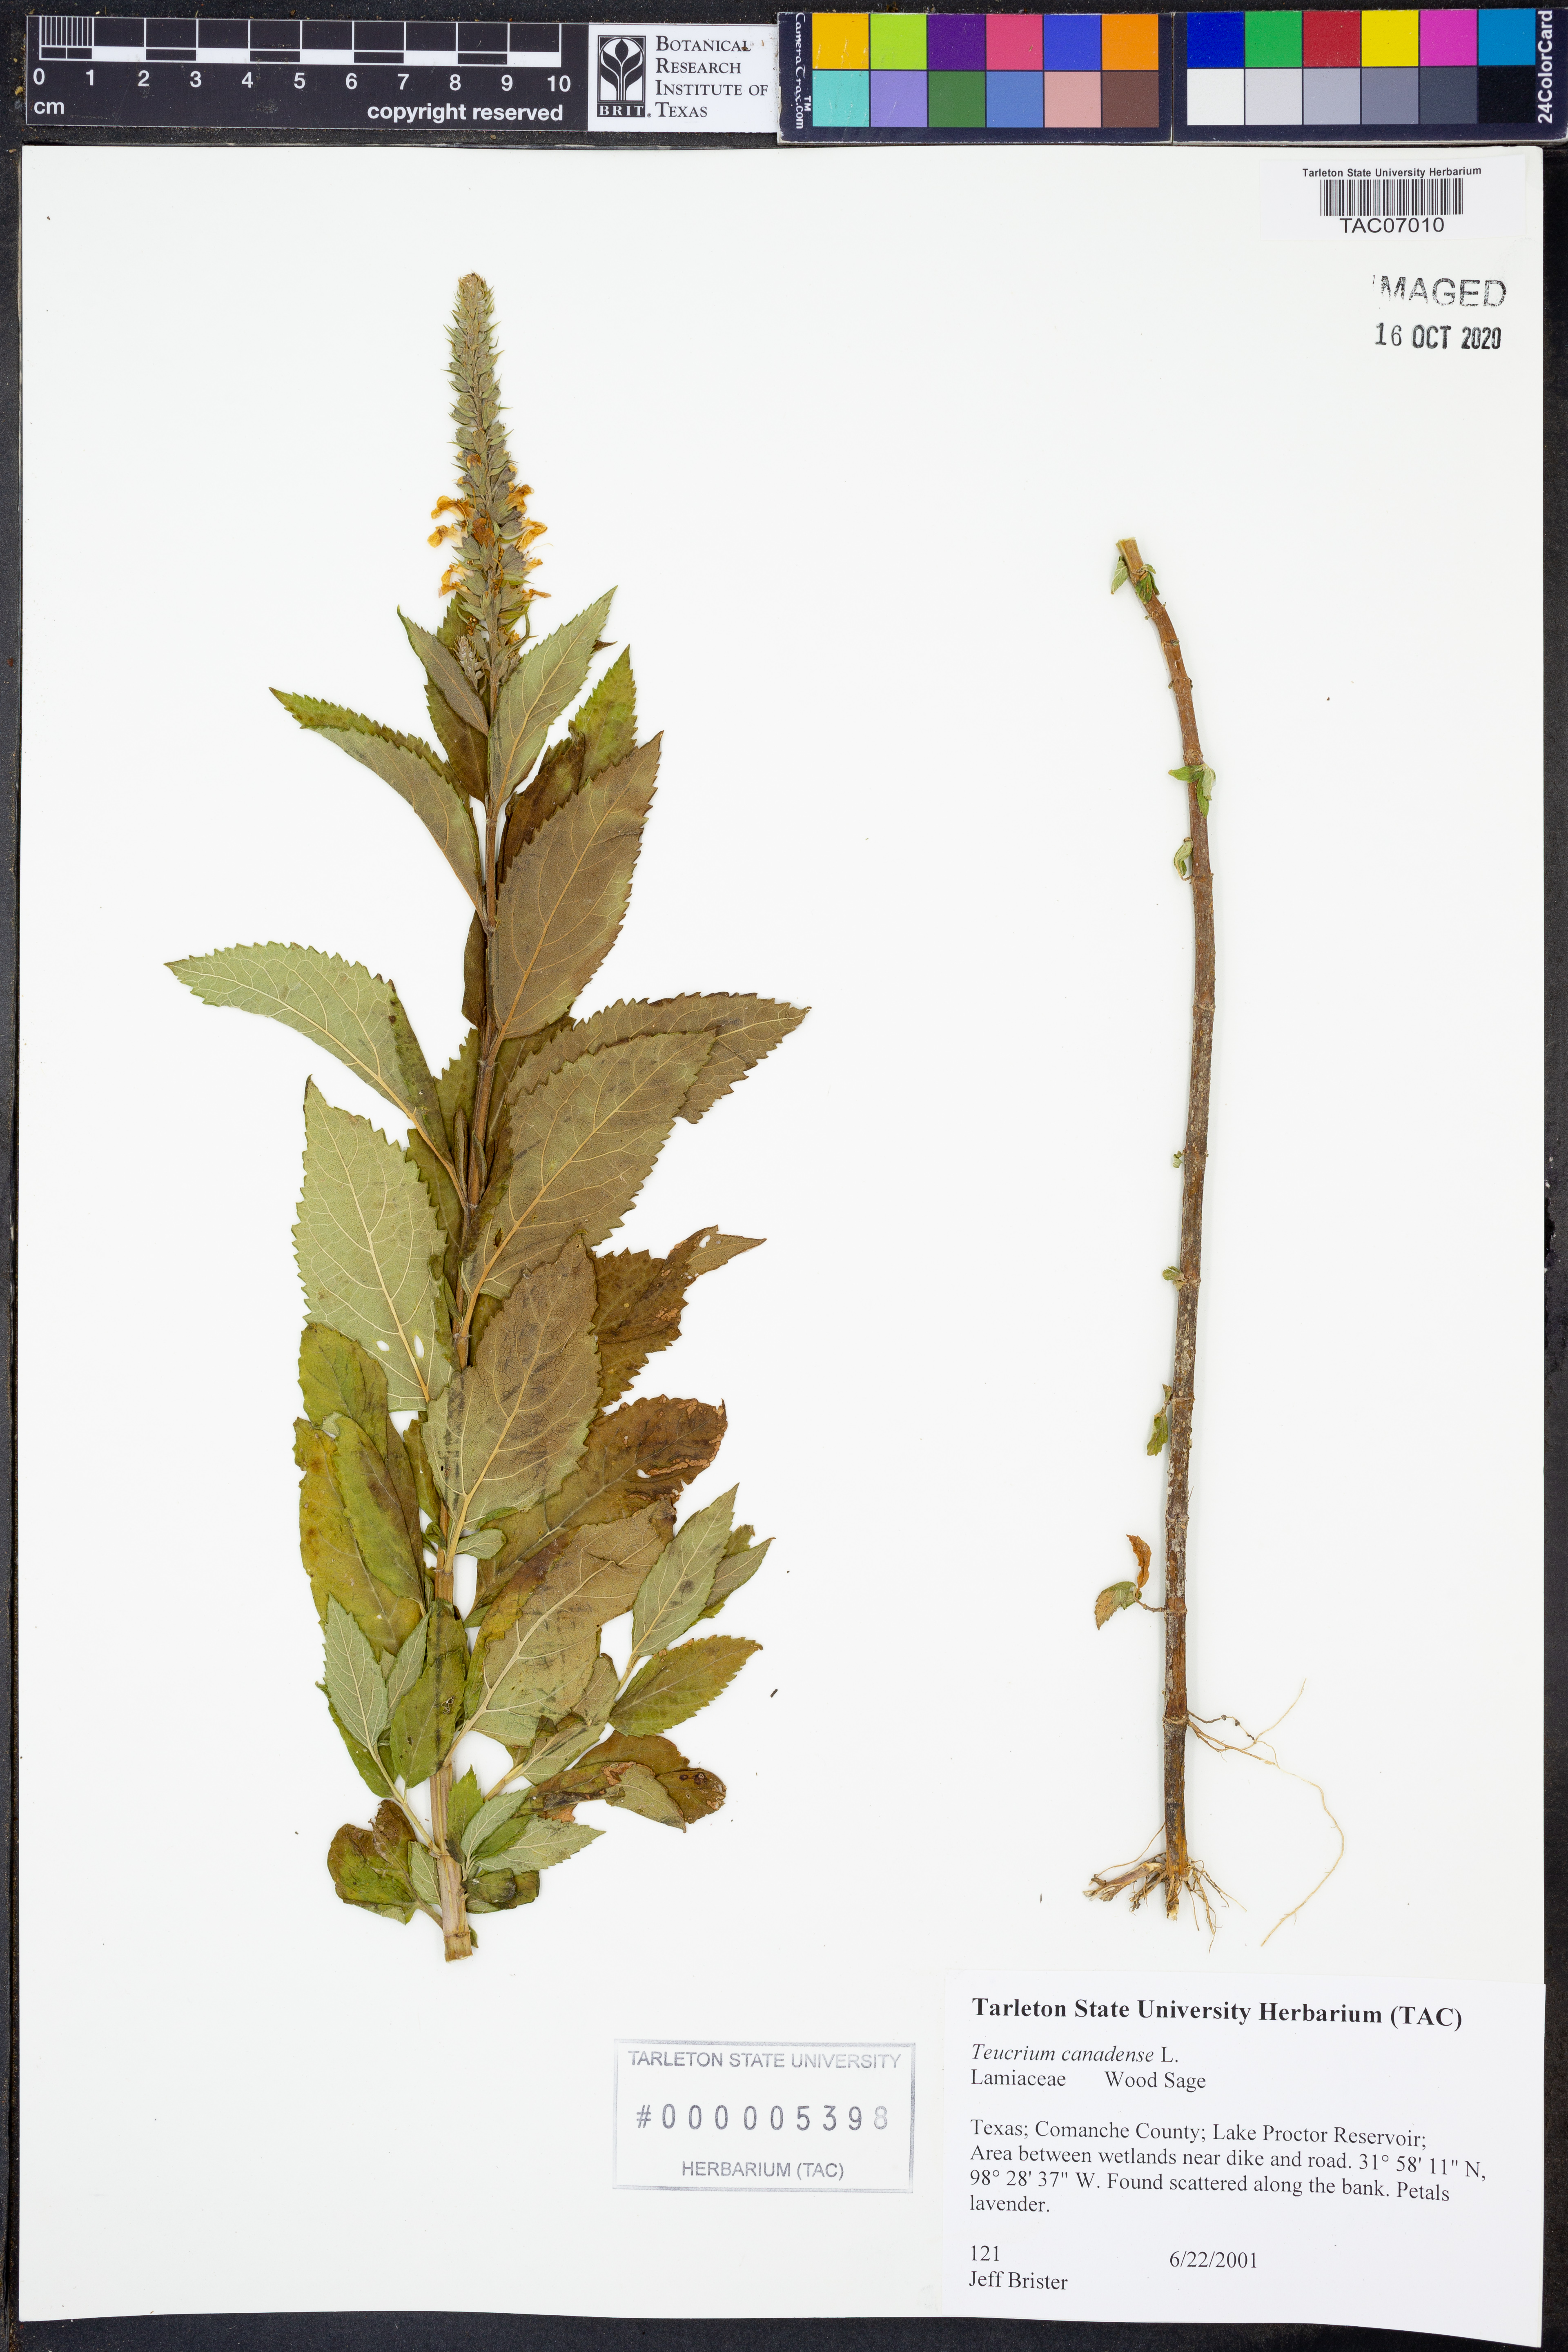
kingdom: Plantae
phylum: Tracheophyta
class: Magnoliopsida
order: Lamiales
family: Lamiaceae
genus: Teucrium
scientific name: Teucrium canadense
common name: American germander
